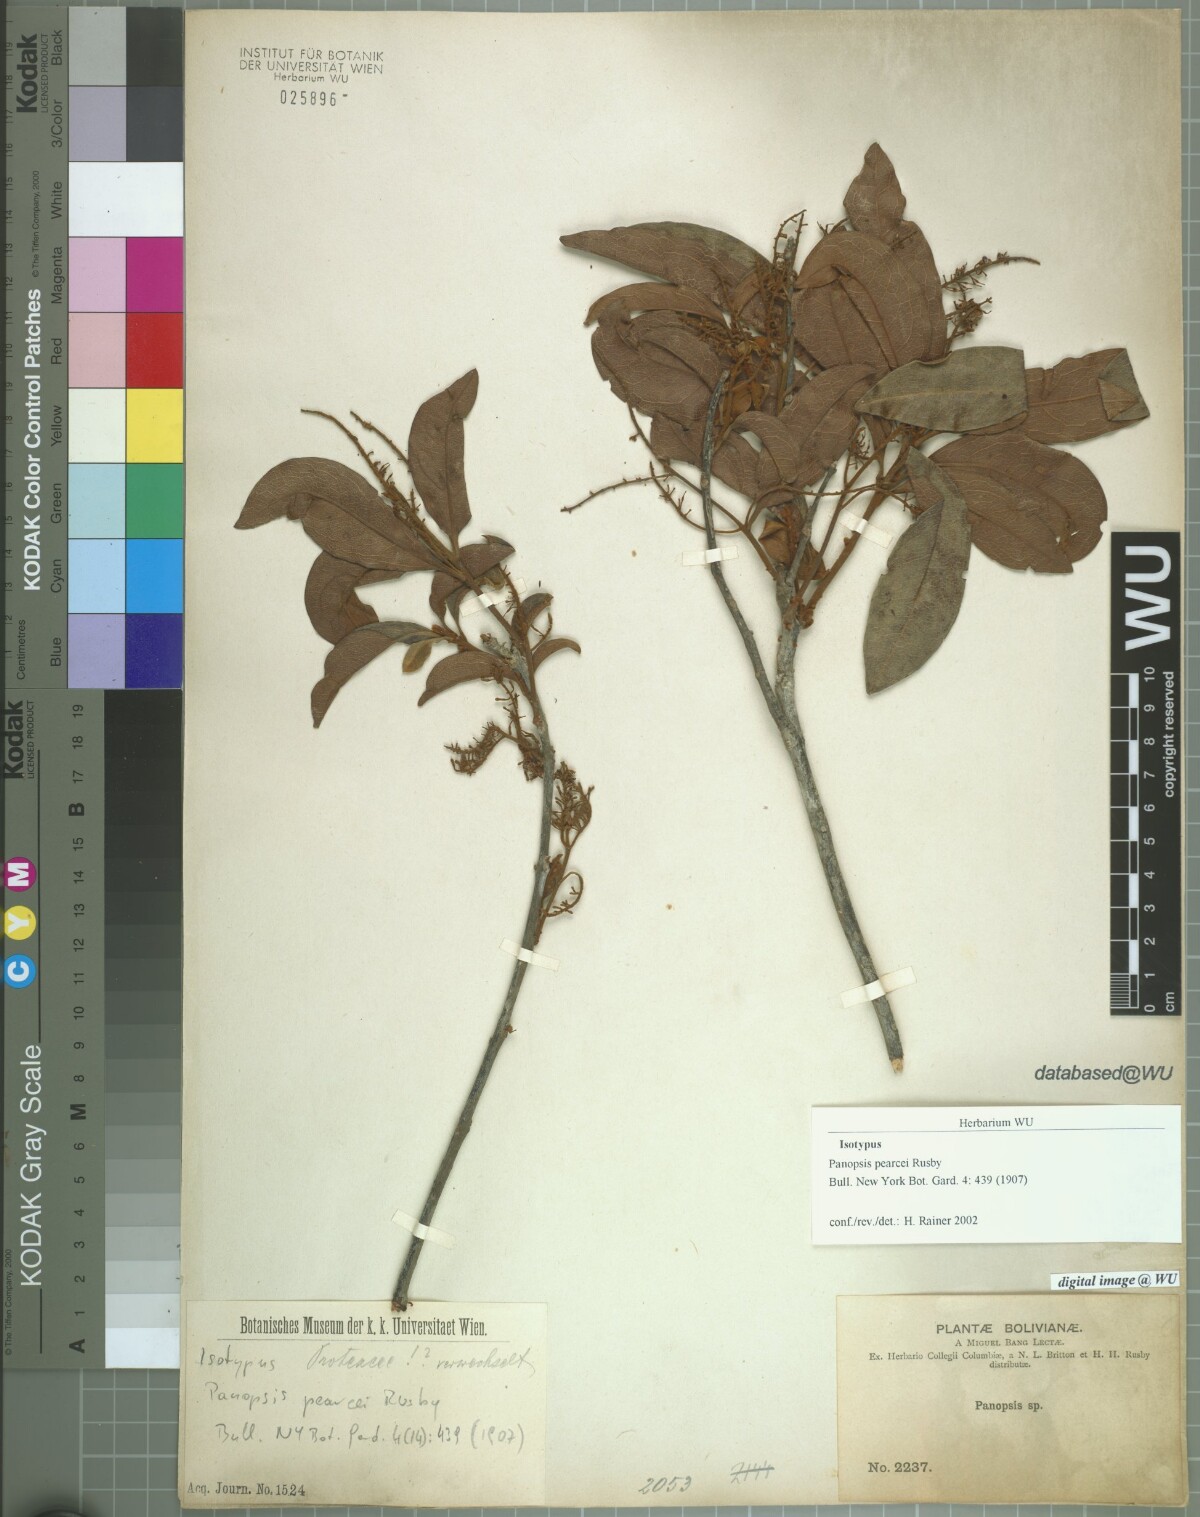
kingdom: Plantae
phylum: Tracheophyta
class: Magnoliopsida
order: Proteales
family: Proteaceae
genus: Panopsis
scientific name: Panopsis pearcei
